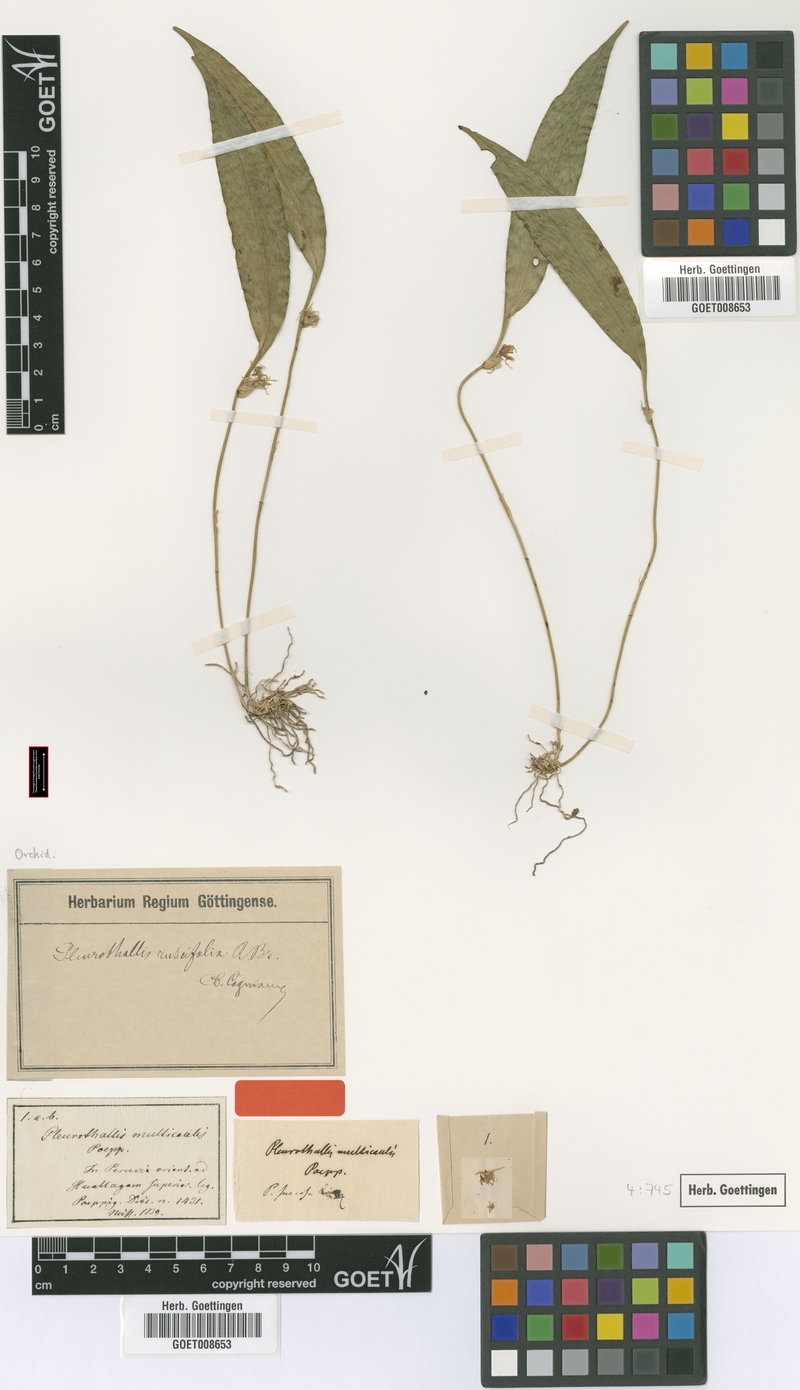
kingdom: Plantae
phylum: Tracheophyta
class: Liliopsida
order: Asparagales
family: Orchidaceae
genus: Pleurothallis
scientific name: Pleurothallis ruscifolia
